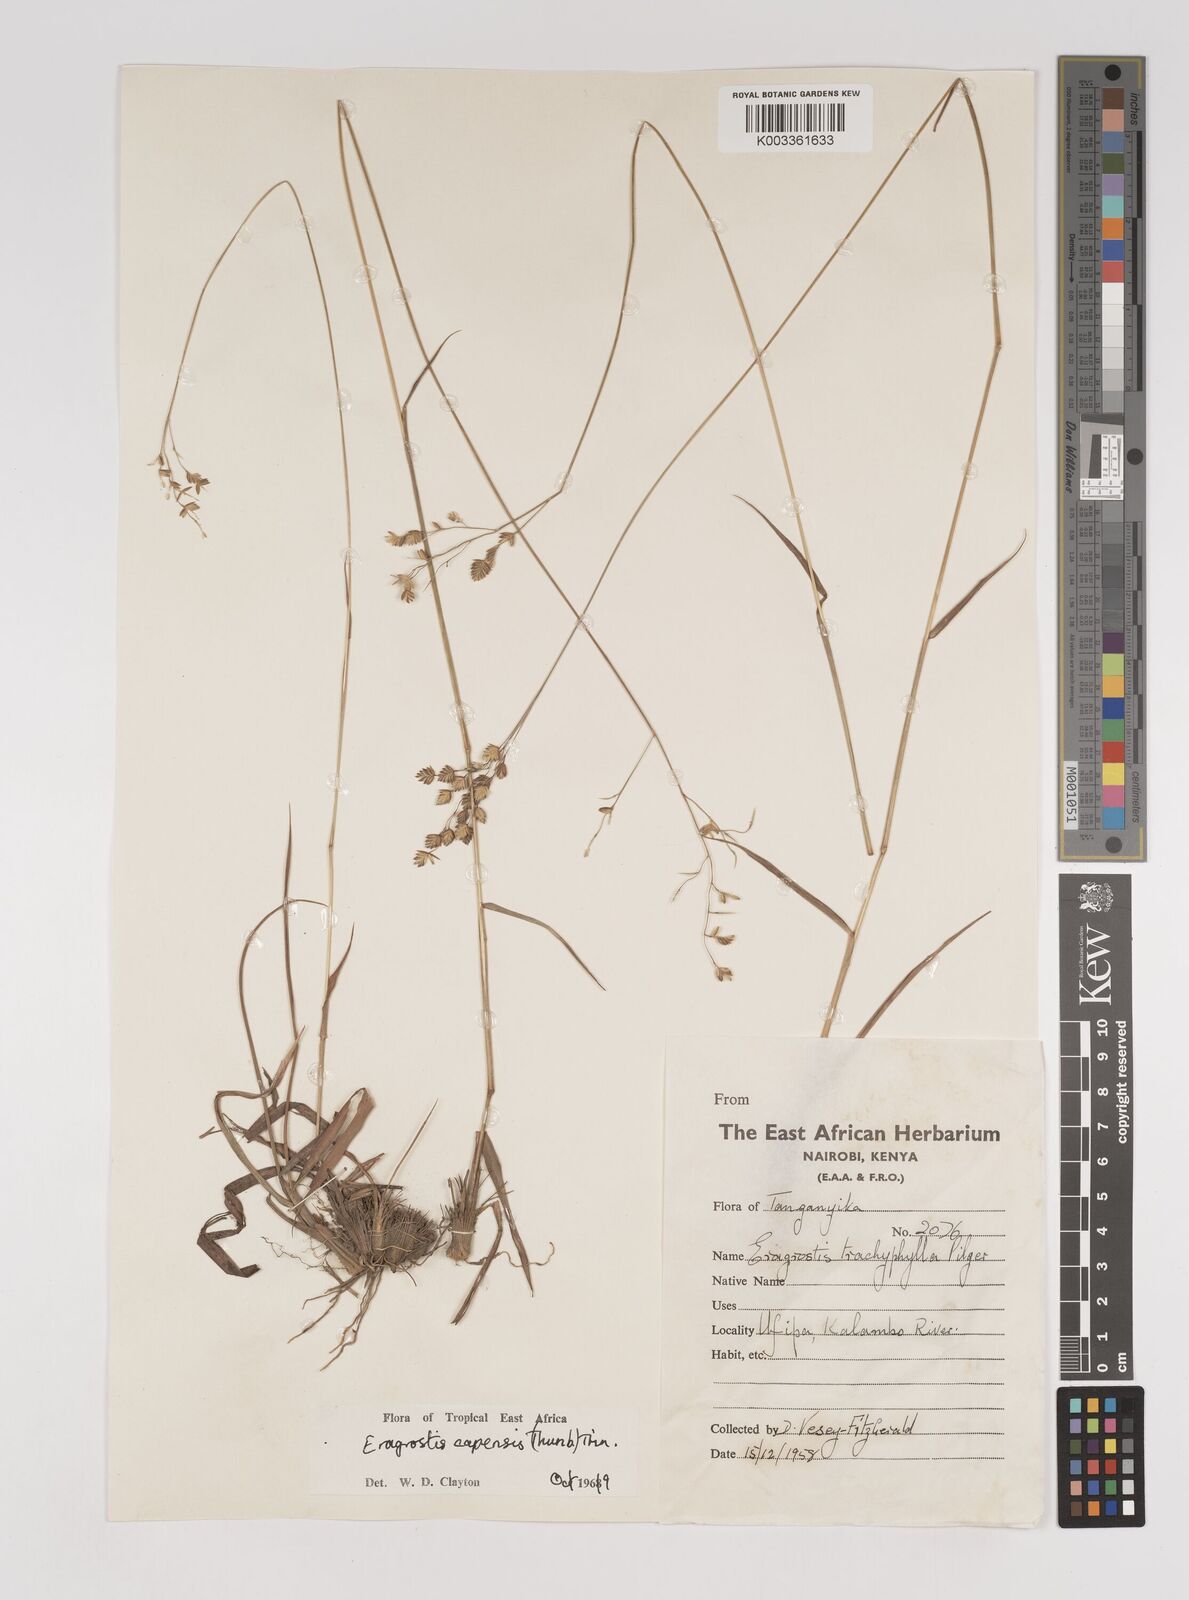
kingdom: Plantae
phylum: Tracheophyta
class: Liliopsida
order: Poales
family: Poaceae
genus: Eragrostis
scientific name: Eragrostis capensis
